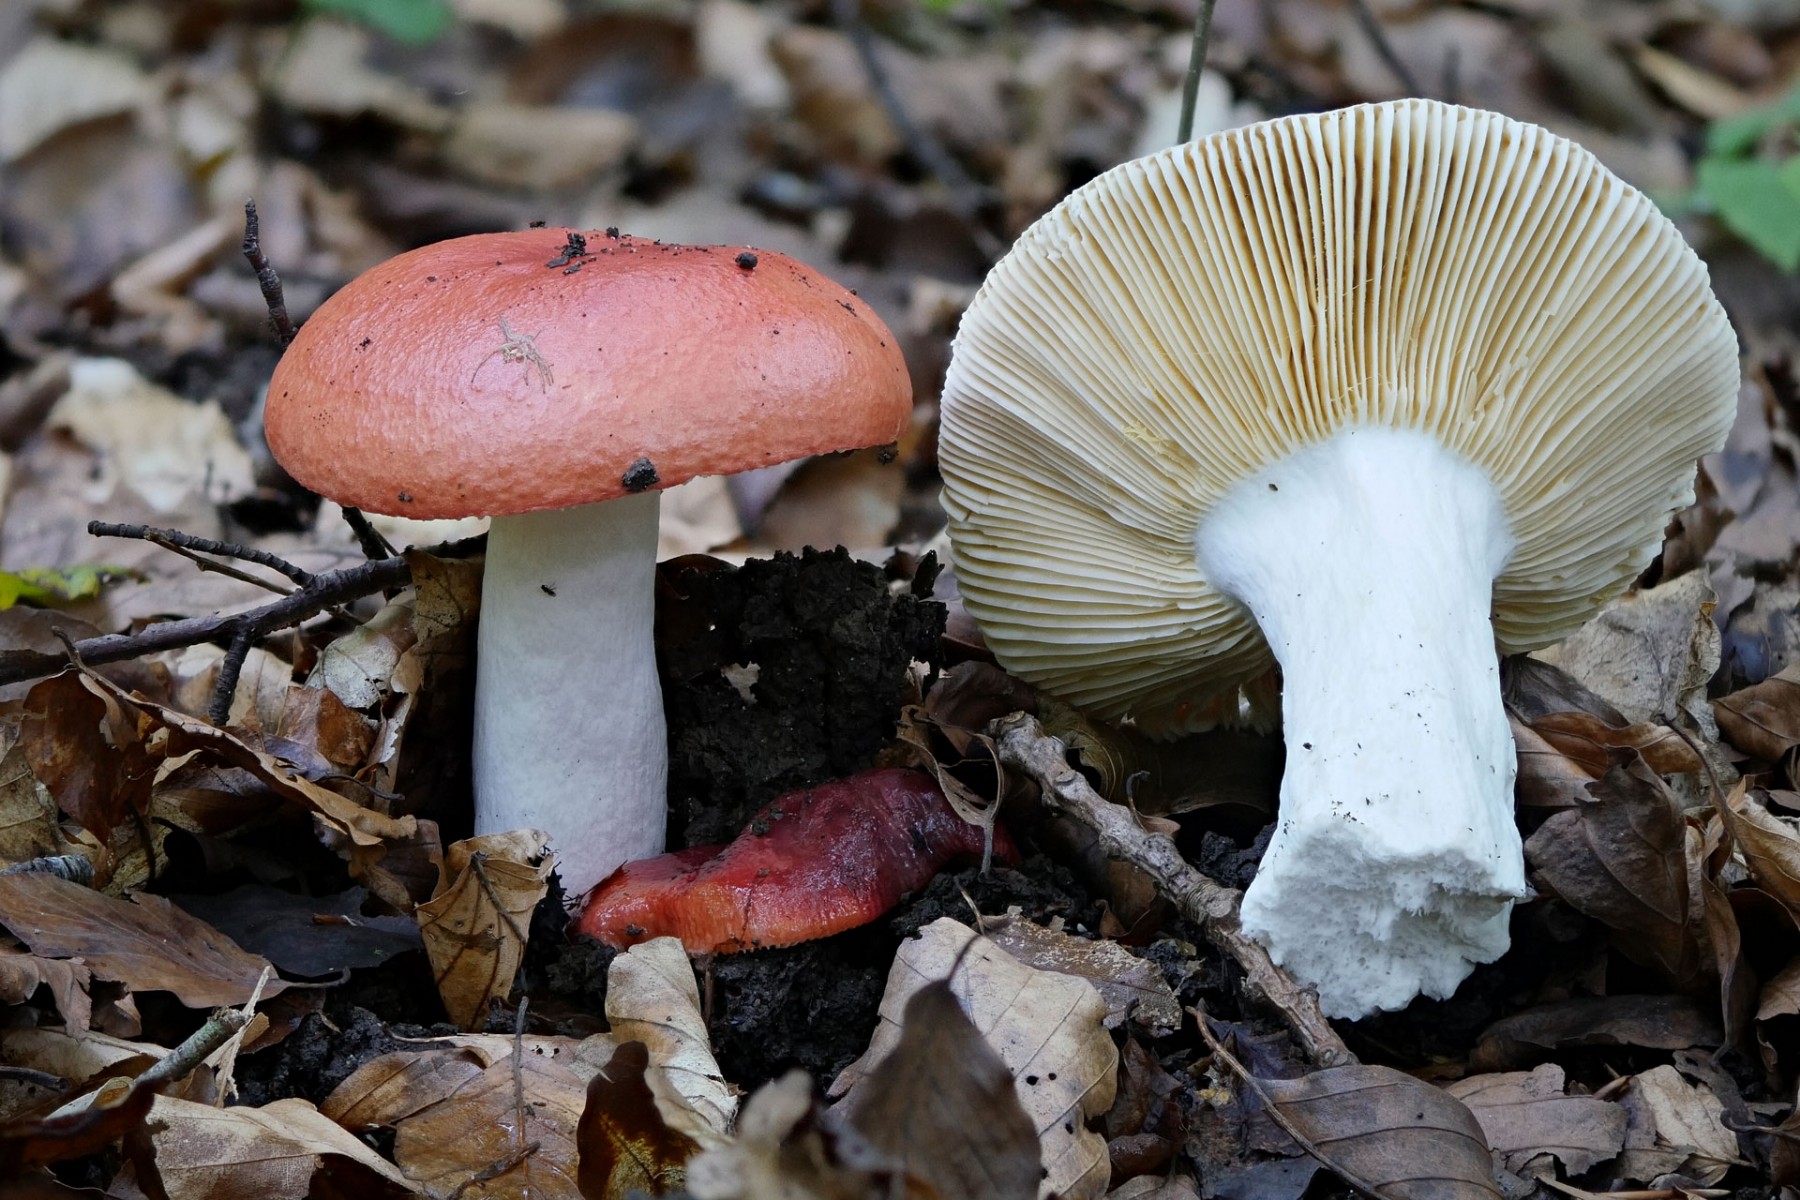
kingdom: Fungi
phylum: Basidiomycota
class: Agaricomycetes
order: Russulales
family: Russulaceae
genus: Russula
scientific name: Russula pseudointegra
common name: cinnoberrød skørhat
